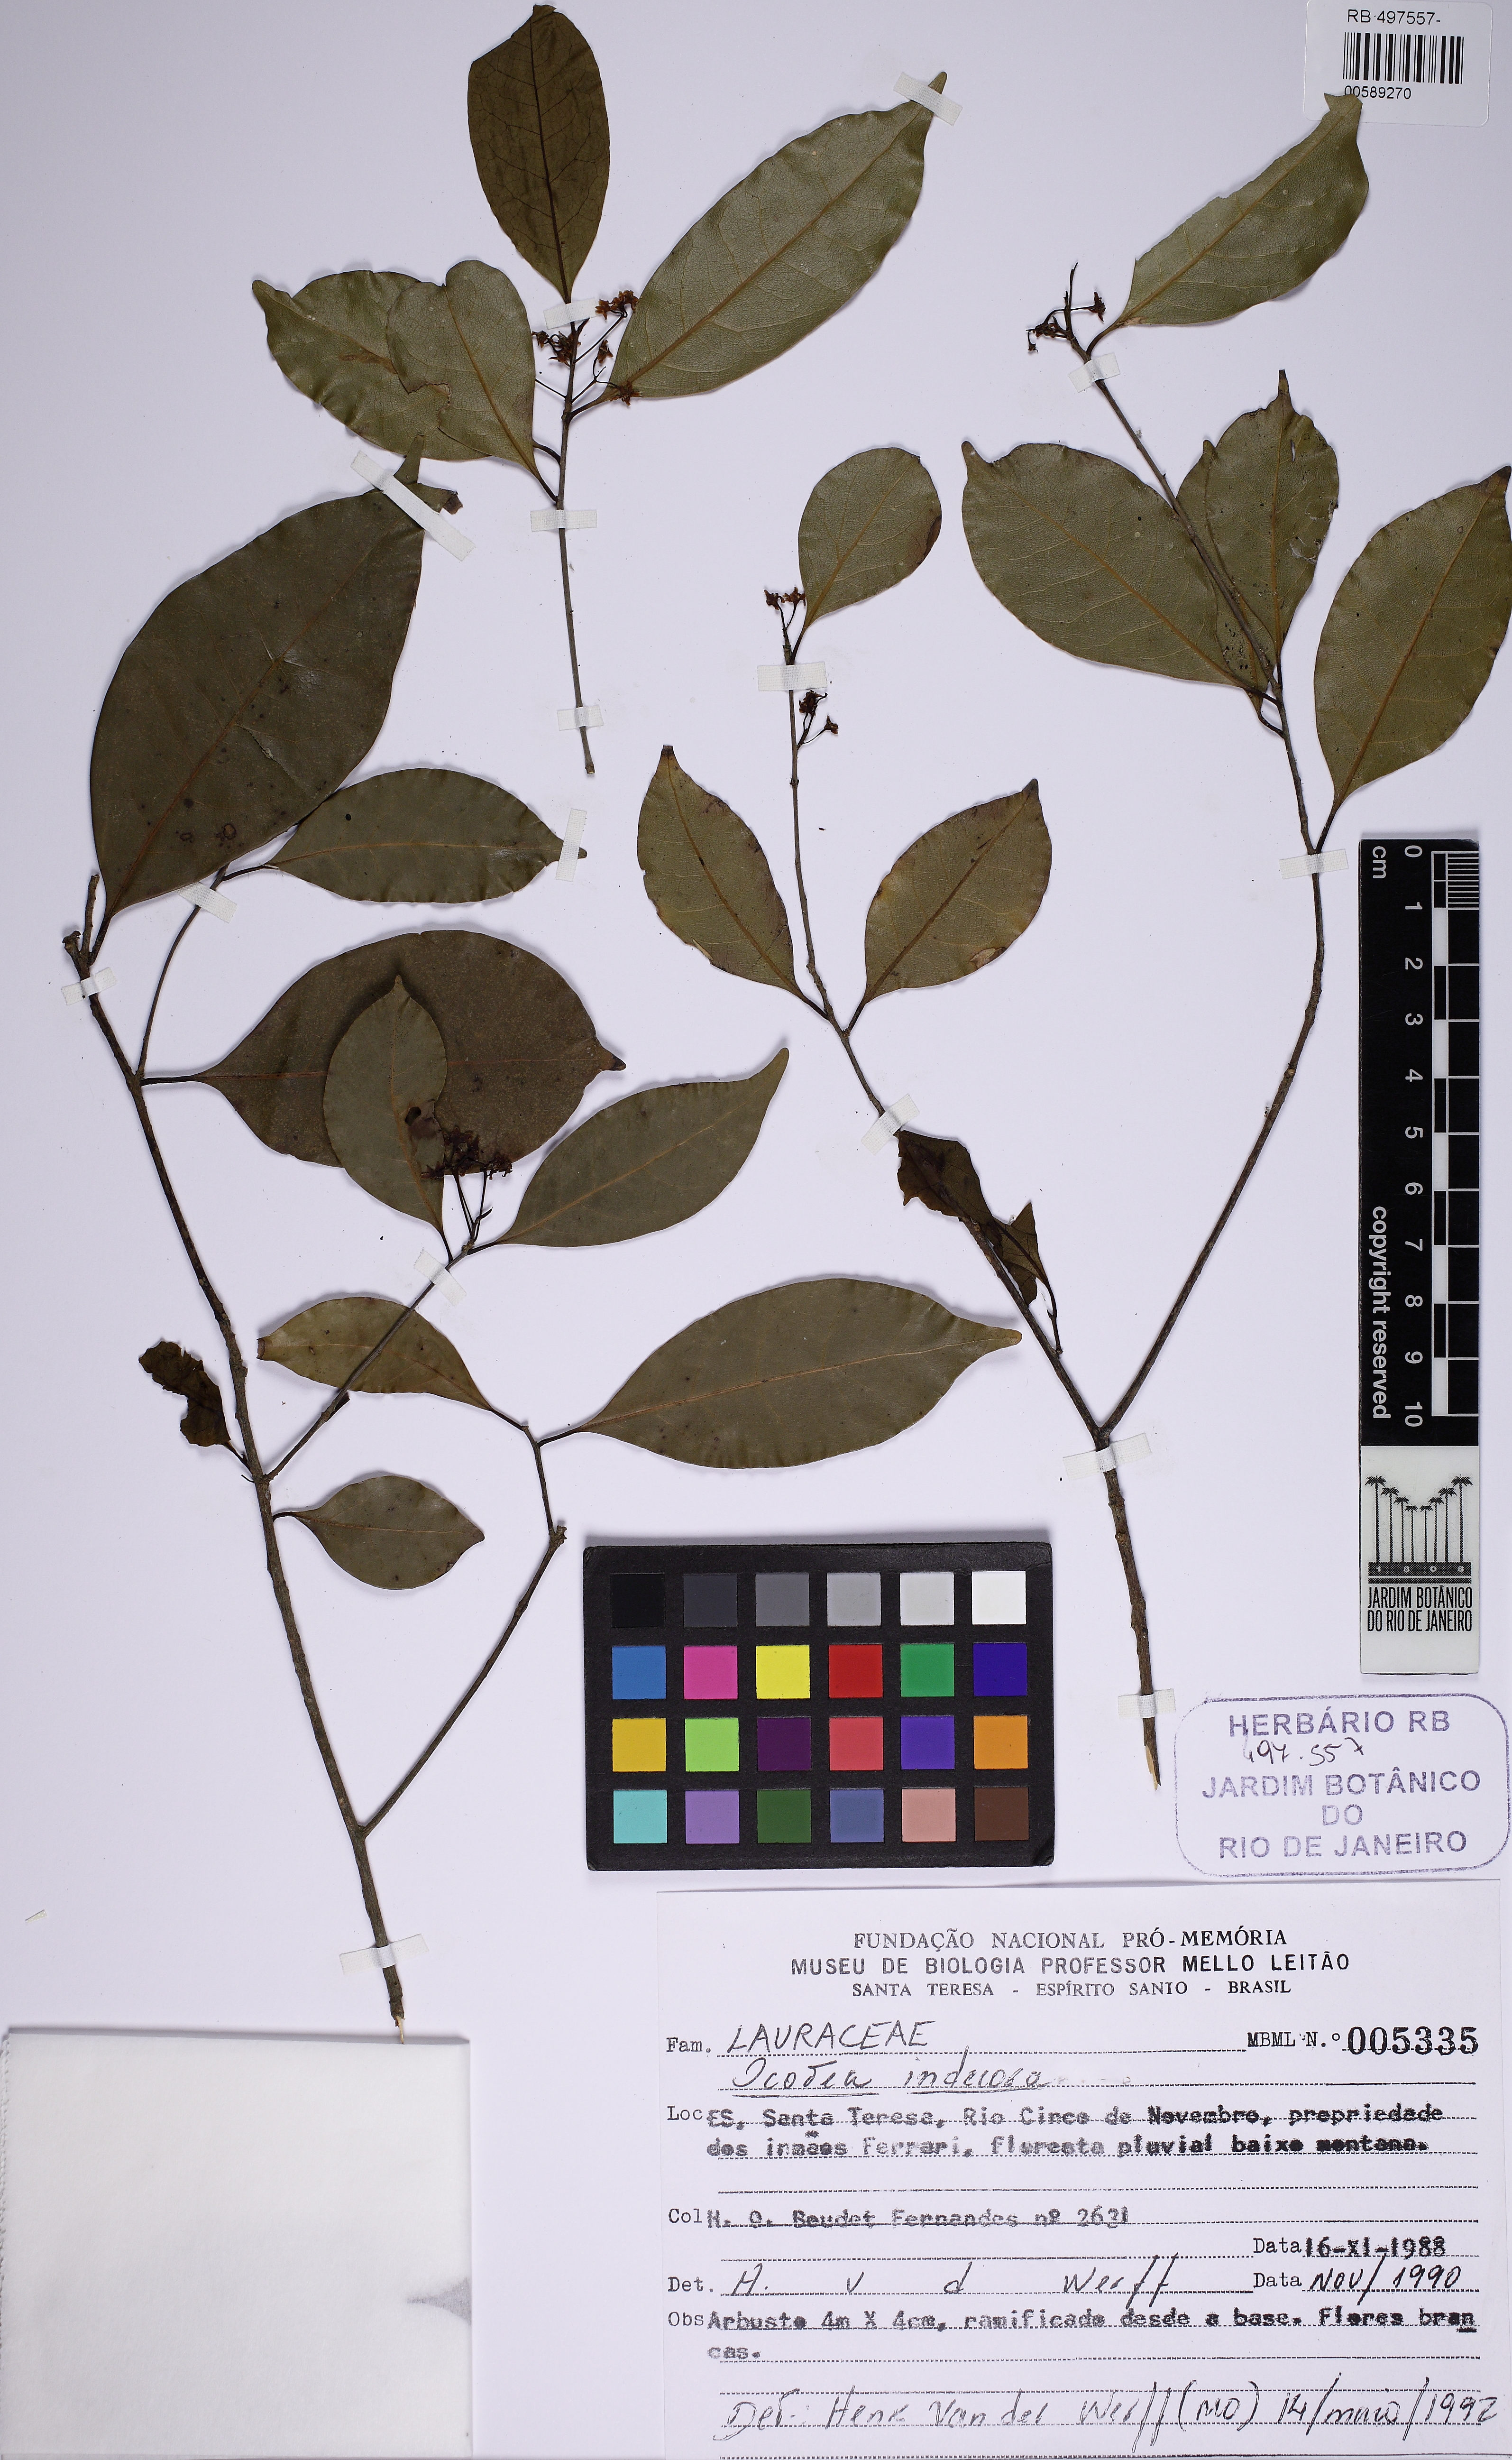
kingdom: Plantae
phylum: Tracheophyta
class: Magnoliopsida
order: Laurales
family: Lauraceae
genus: Mespilodaphne
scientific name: Mespilodaphne indecora
